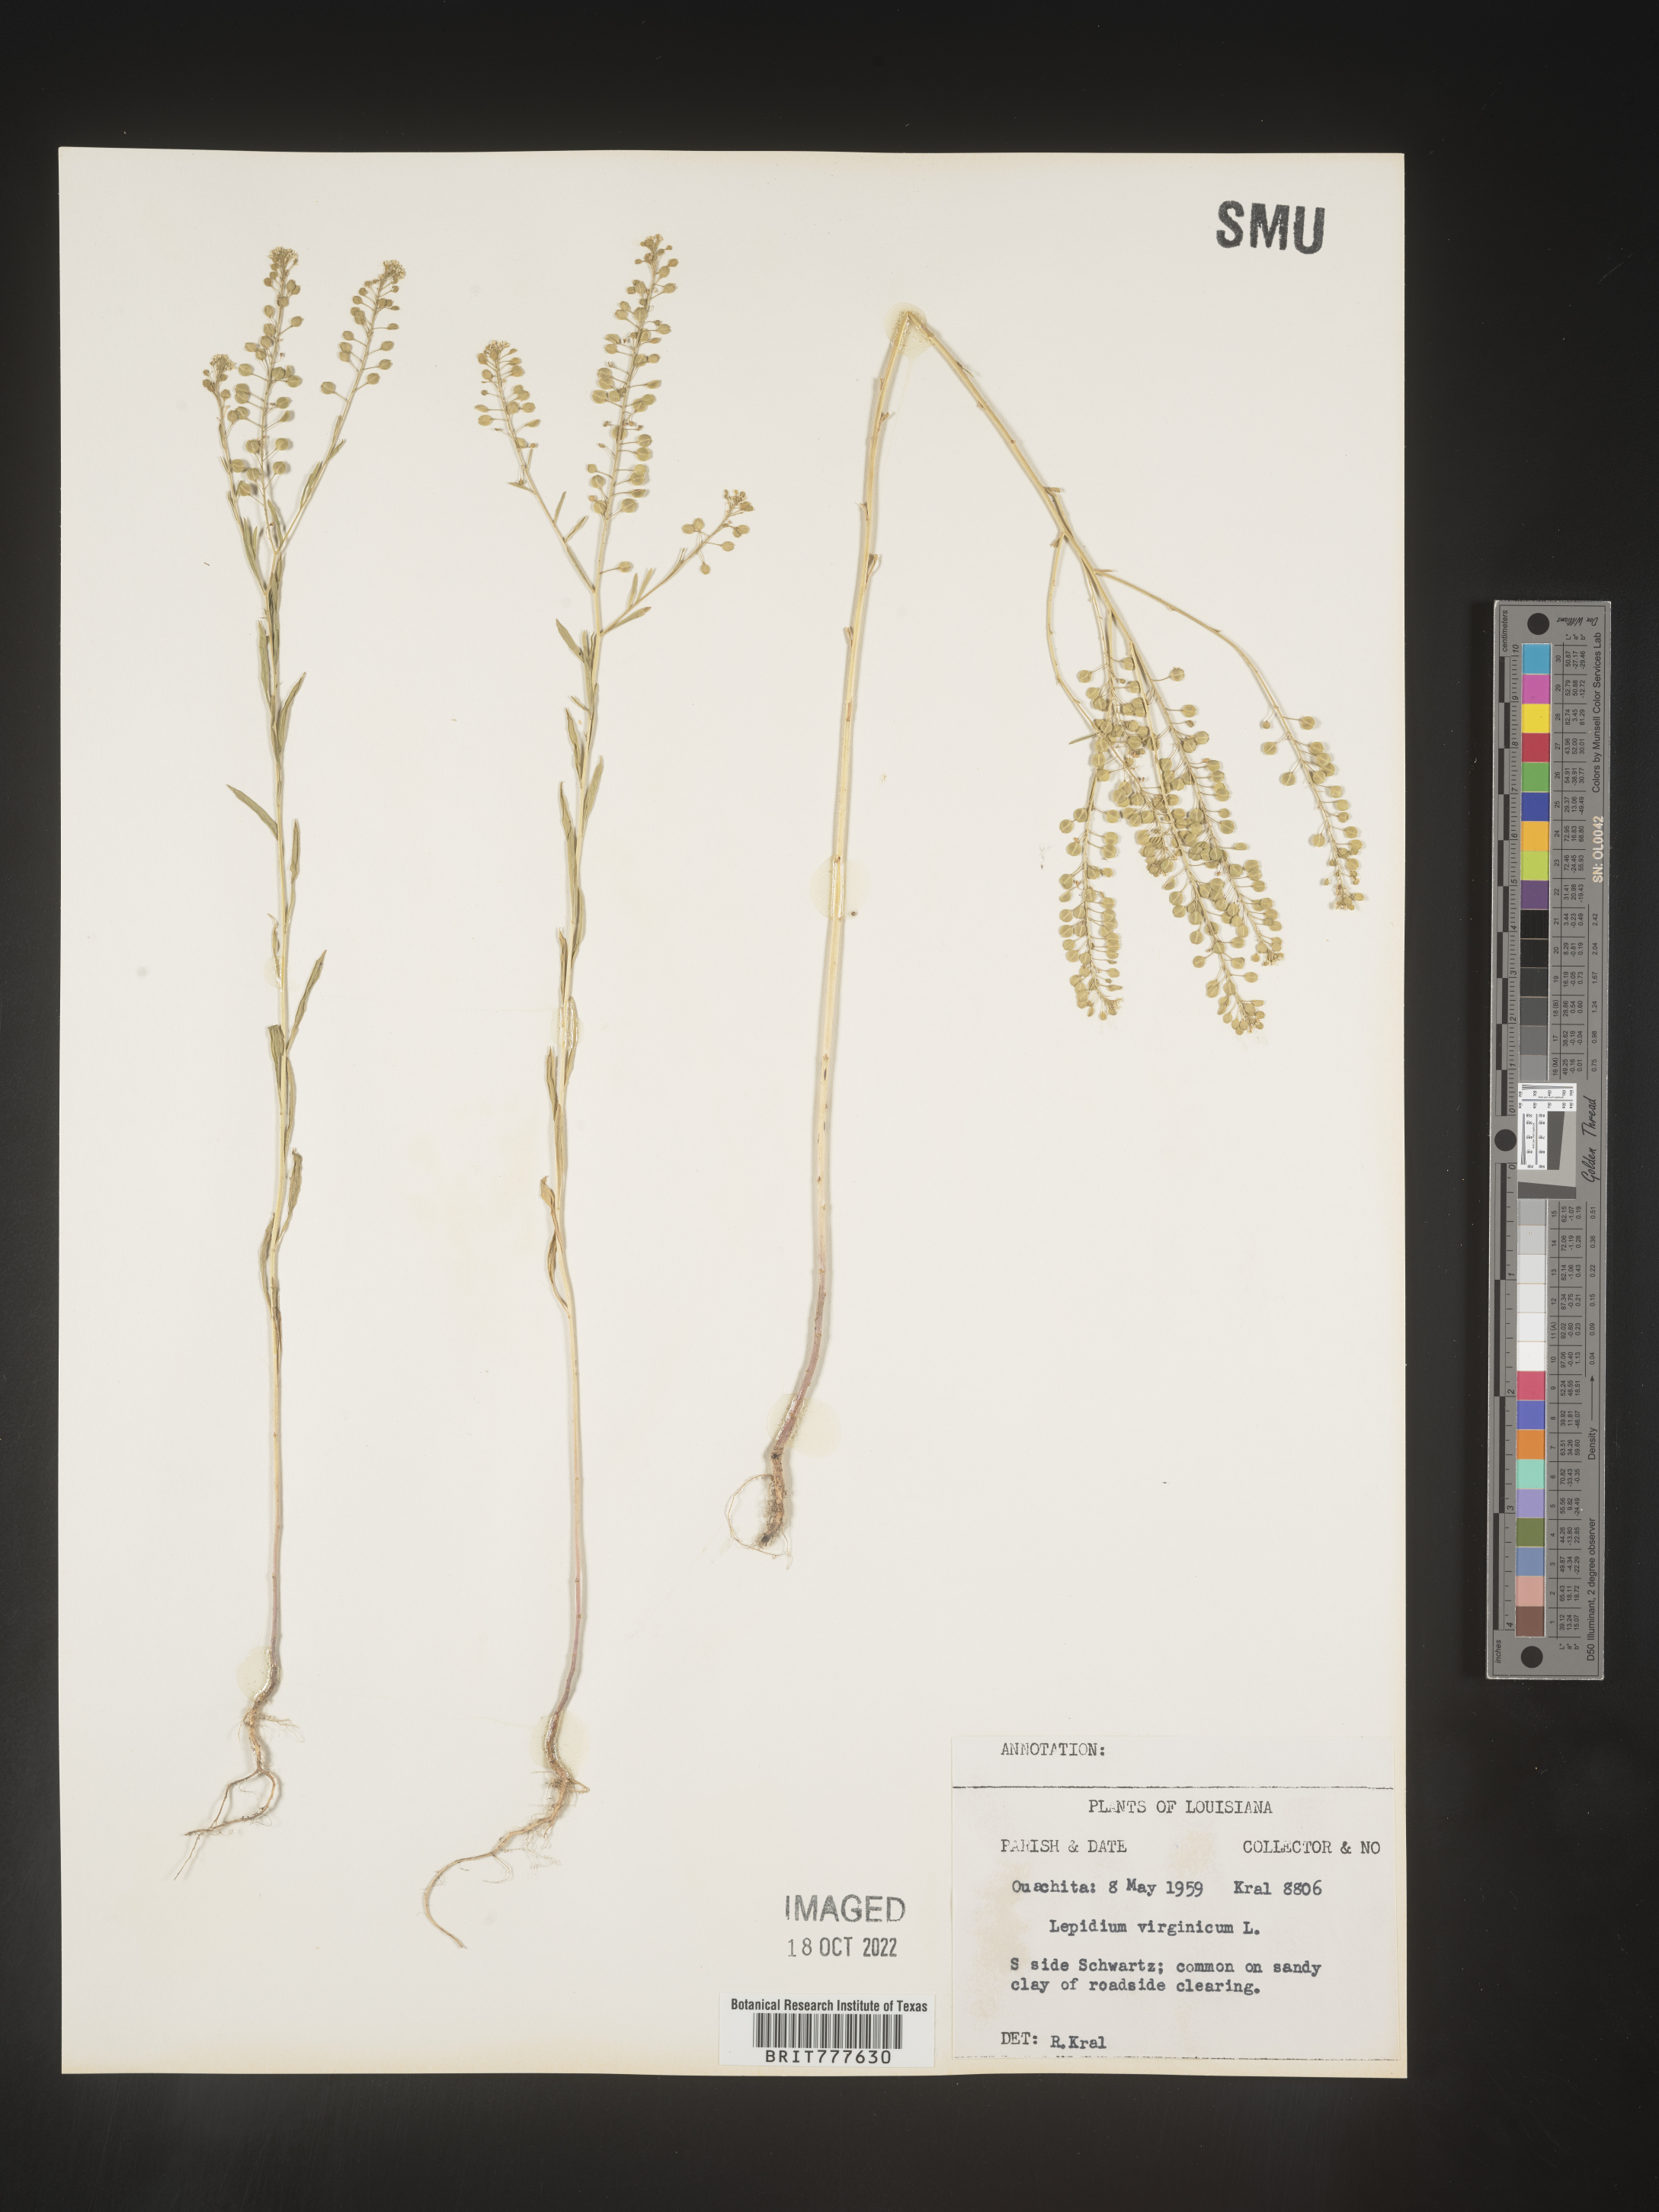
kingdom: Plantae
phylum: Tracheophyta
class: Magnoliopsida
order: Brassicales
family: Brassicaceae
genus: Lepidium
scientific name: Lepidium virginicum
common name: Least pepperwort
